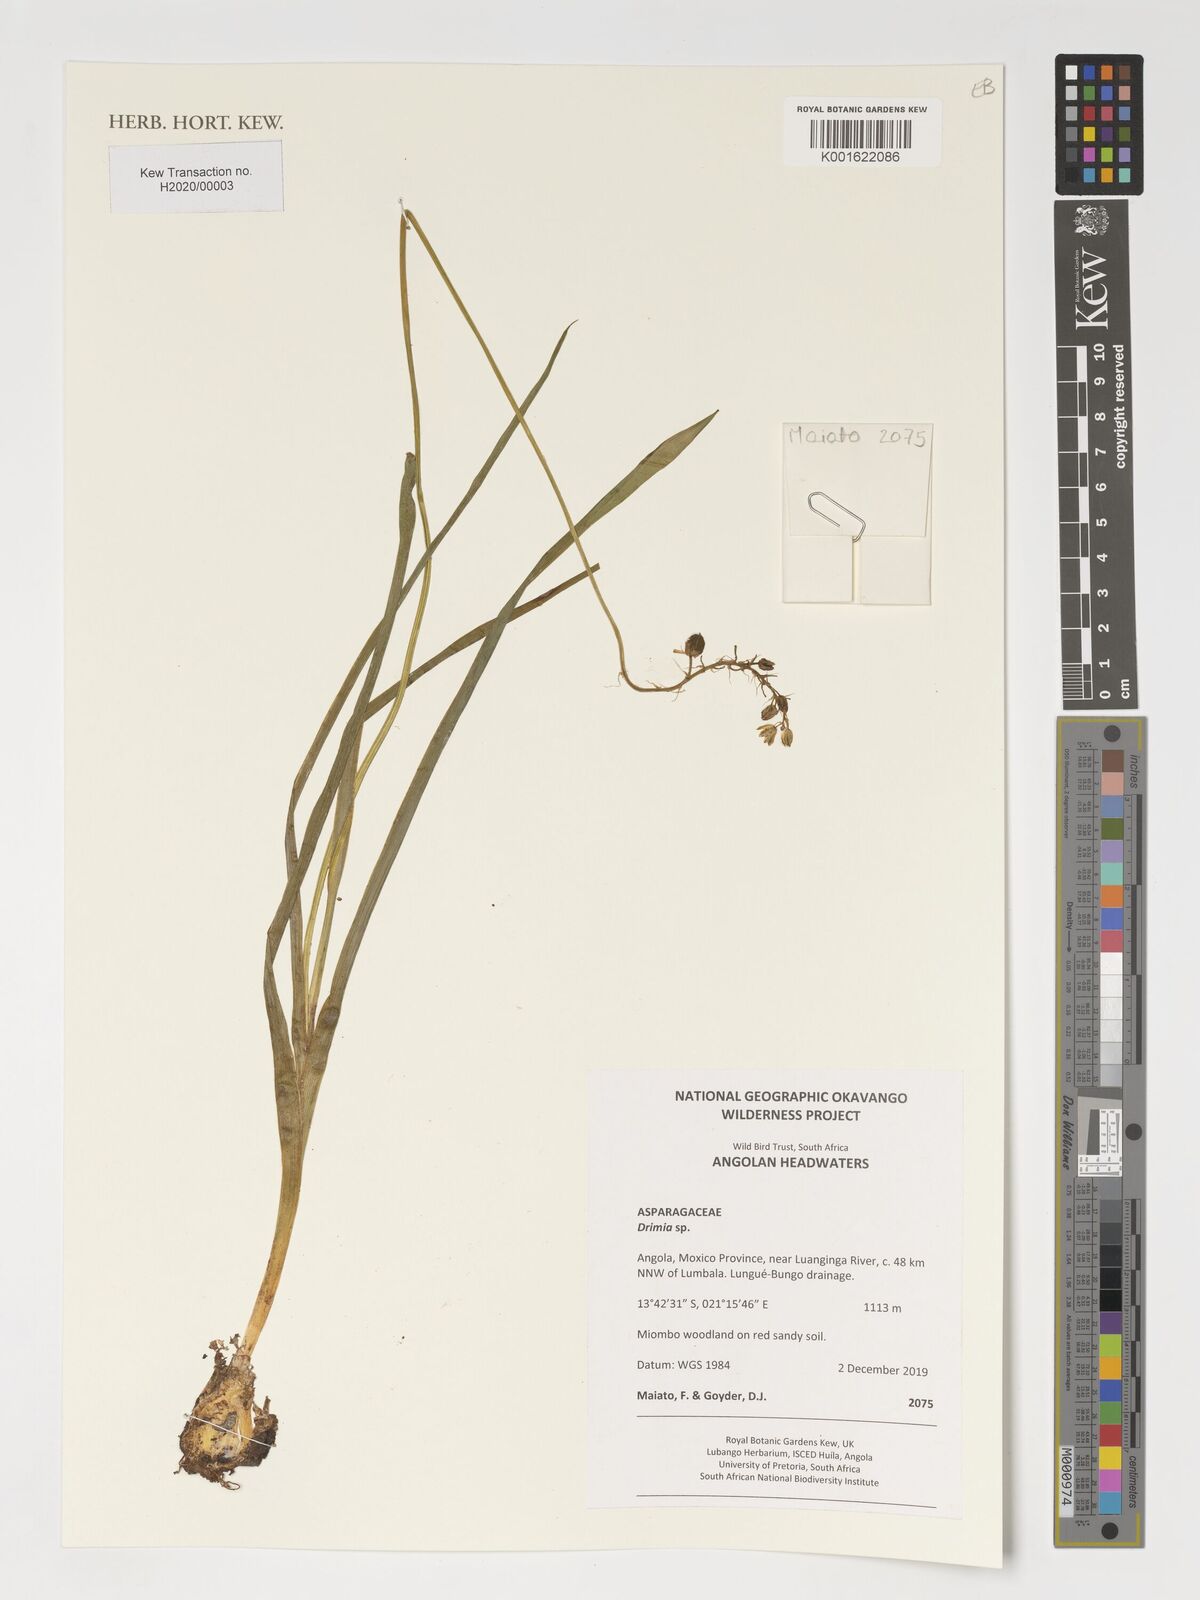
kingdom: Plantae
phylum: Tracheophyta
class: Liliopsida
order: Asparagales
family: Asparagaceae
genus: Drimia
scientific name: Drimia
